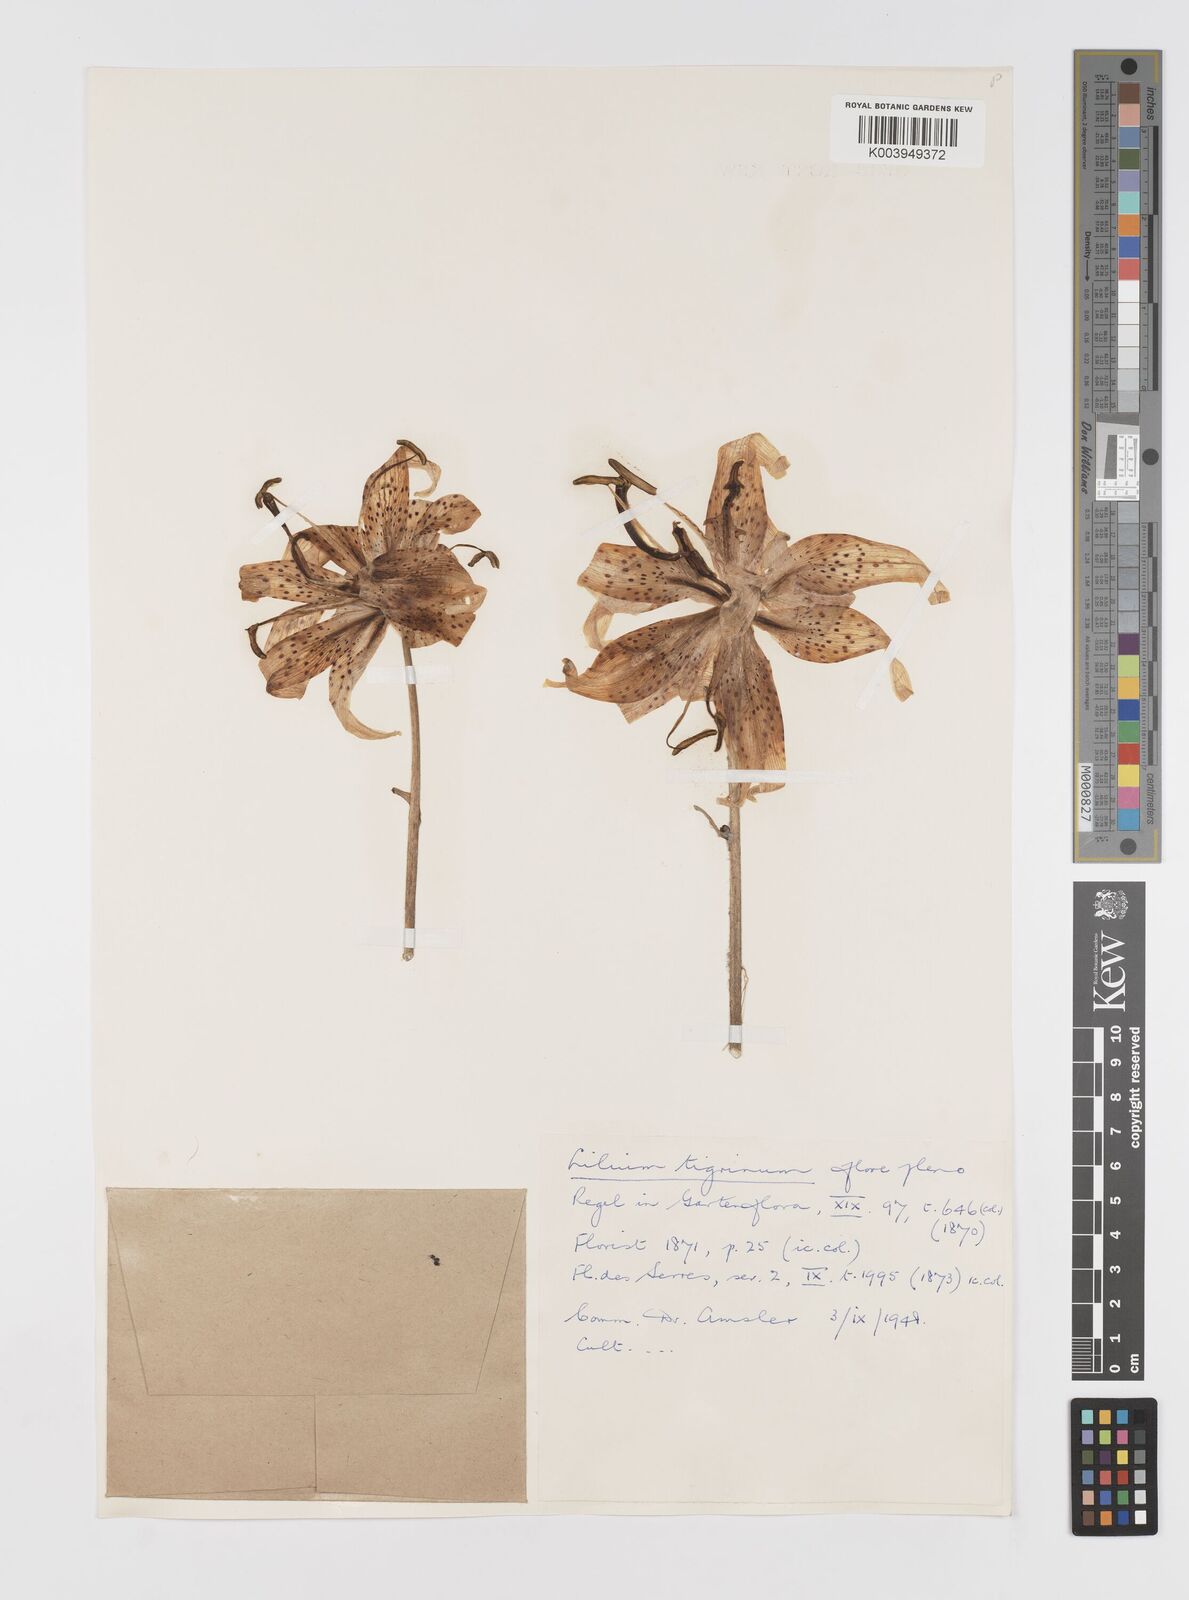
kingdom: Plantae
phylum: Tracheophyta
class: Liliopsida
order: Liliales
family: Liliaceae
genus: Lilium
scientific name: Lilium lancifolium
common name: Tiger lily
